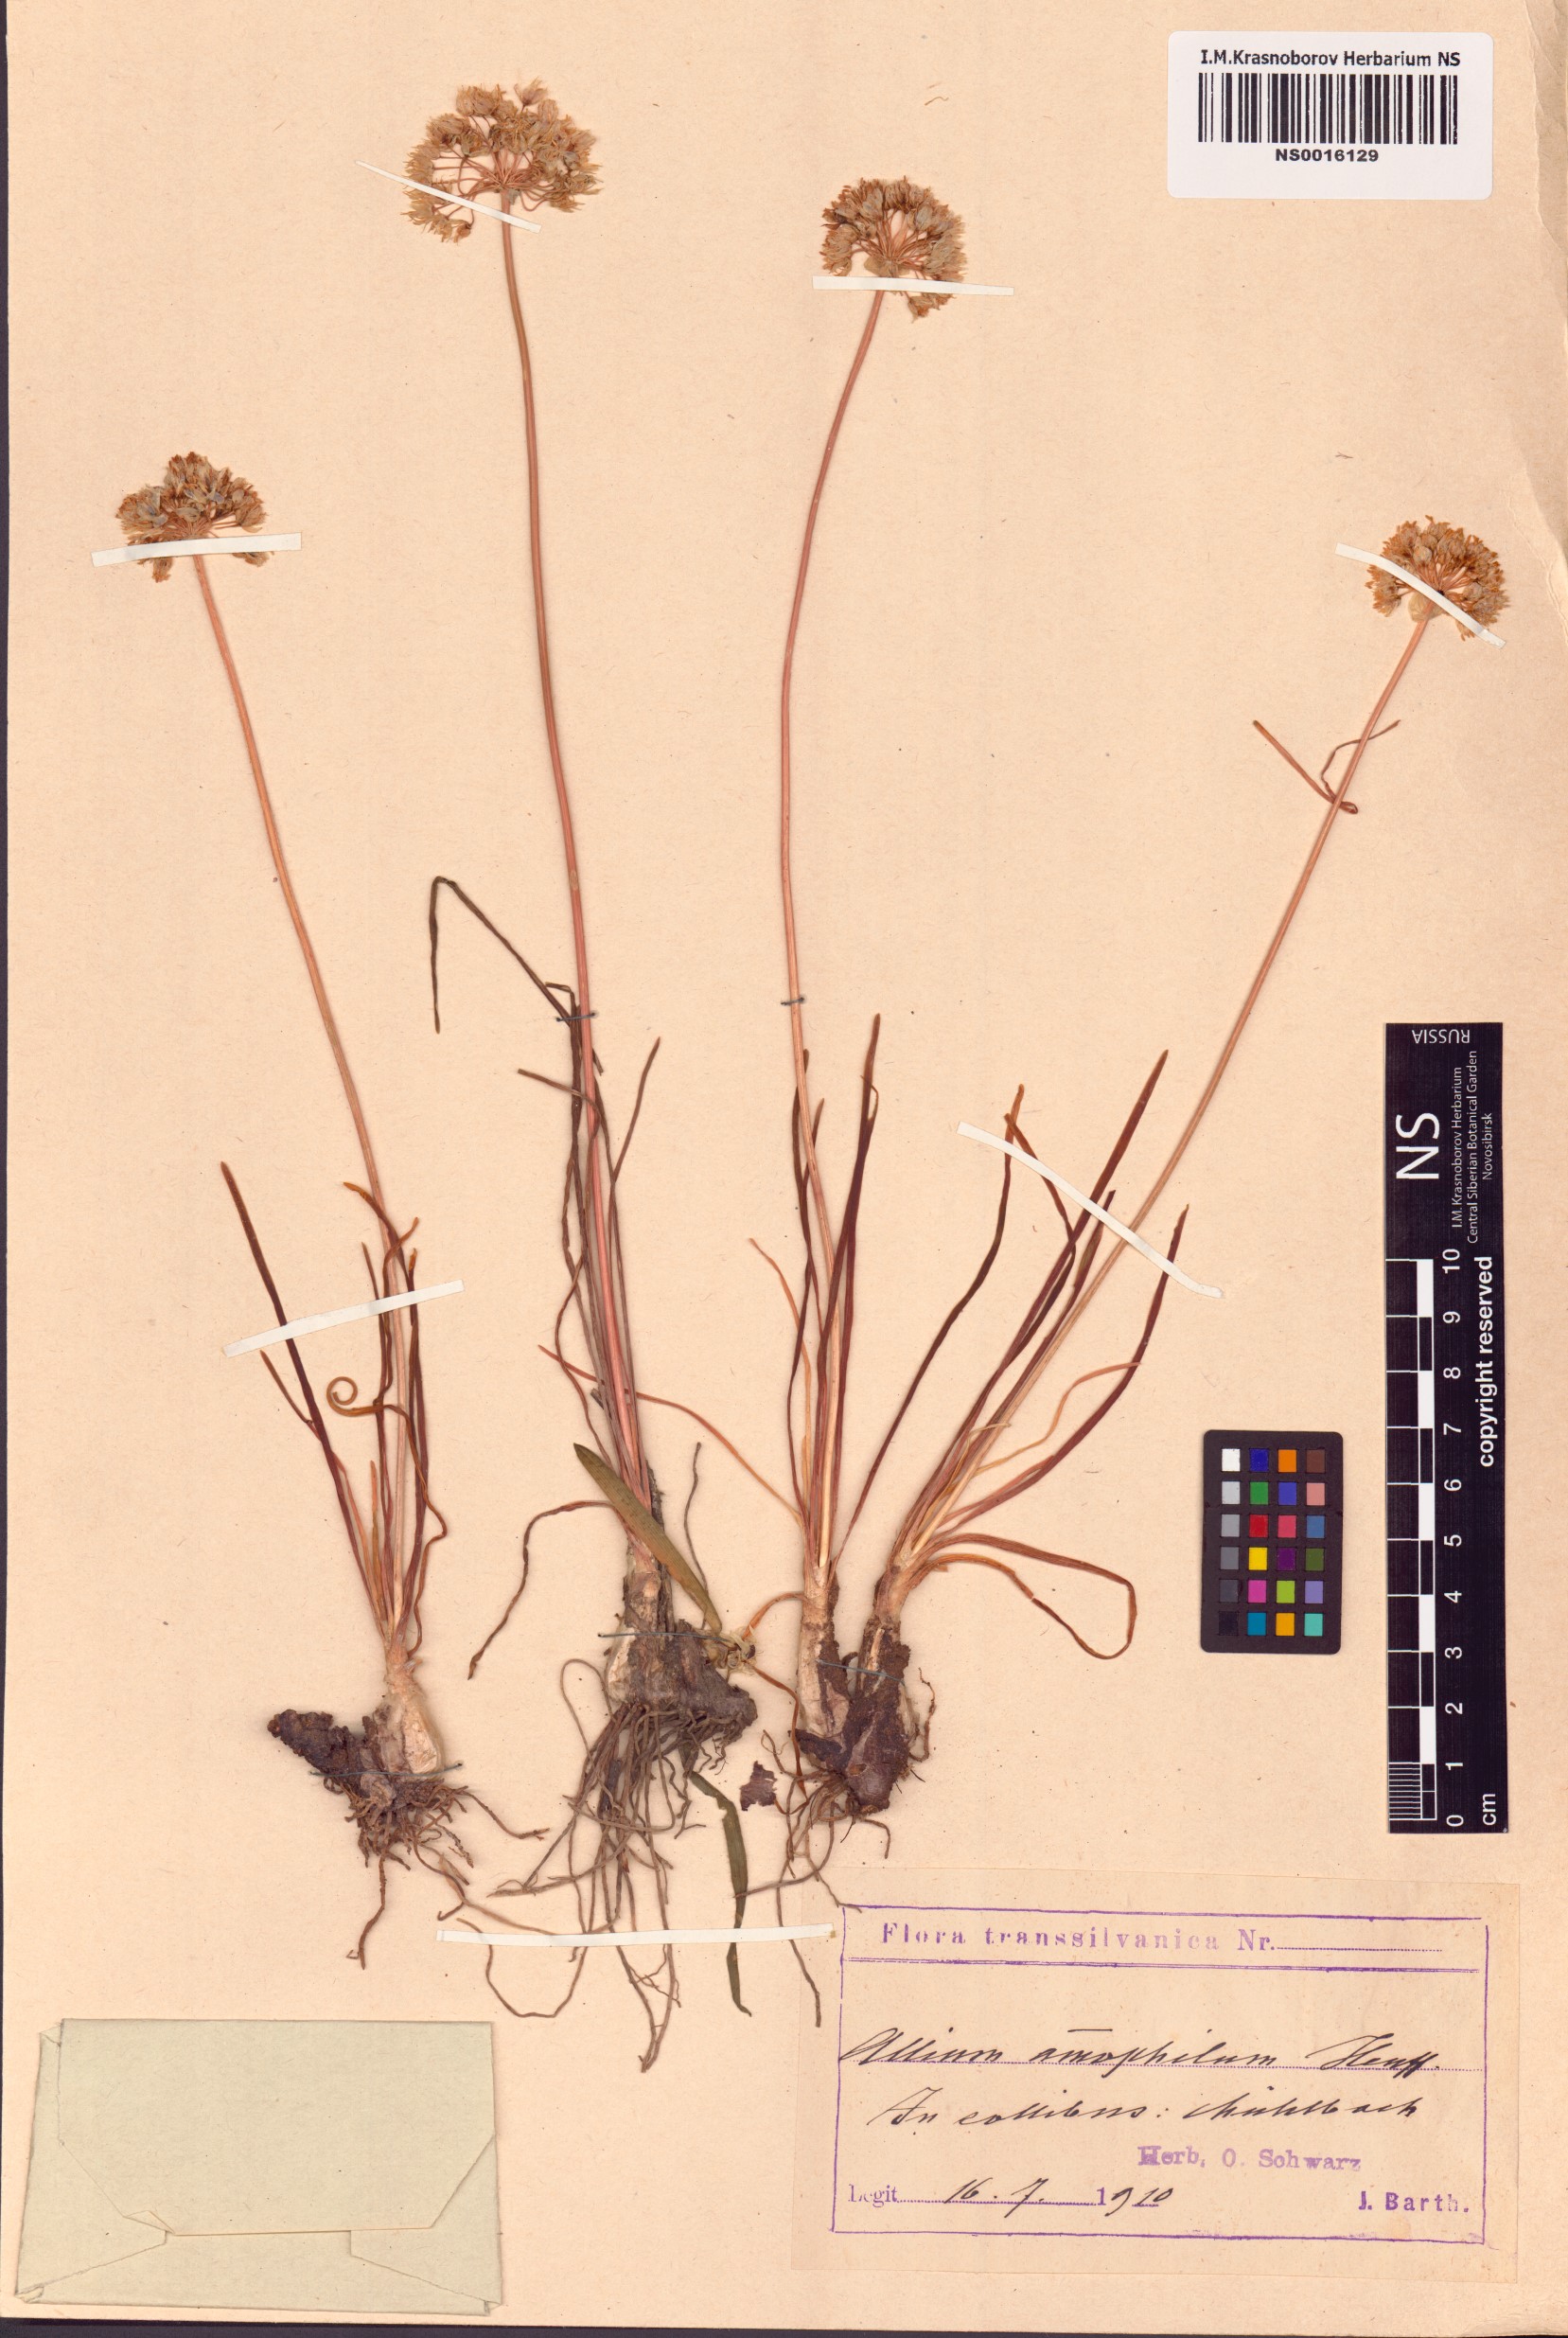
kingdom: Plantae
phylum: Tracheophyta
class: Liliopsida
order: Asparagales
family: Amaryllidaceae
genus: Allium
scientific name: Allium denudatum
